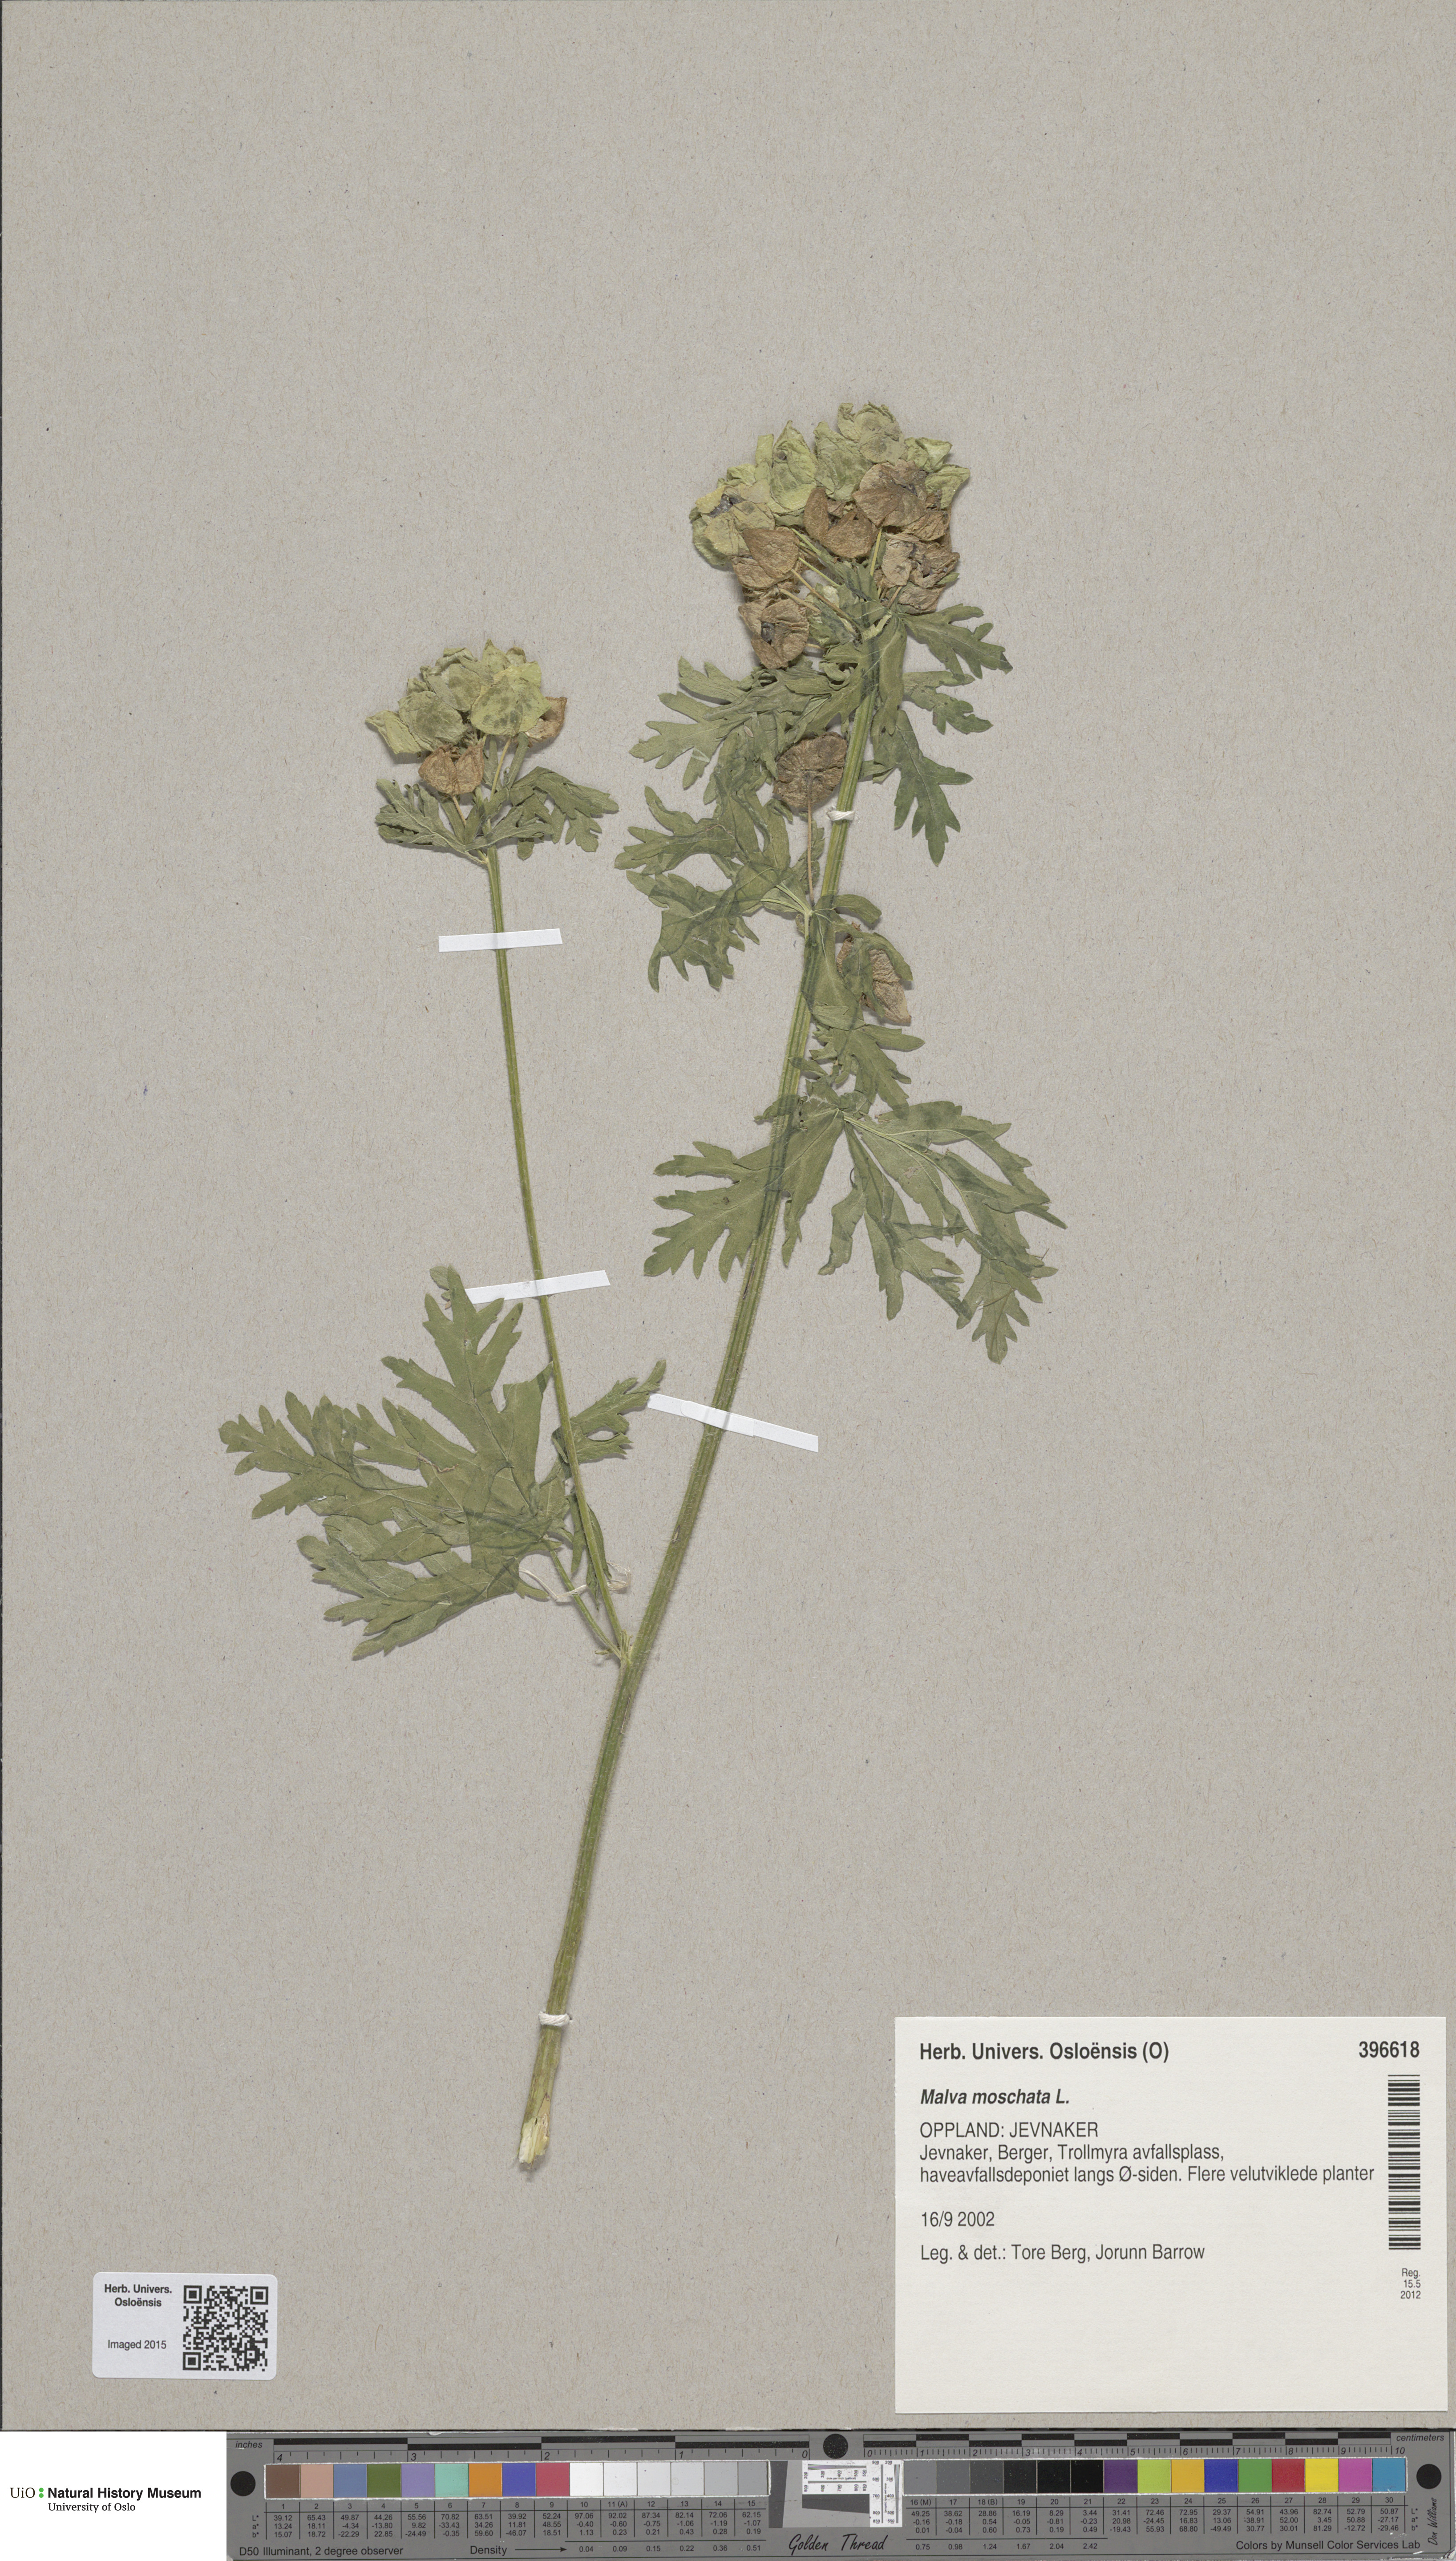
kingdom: Plantae
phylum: Tracheophyta
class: Magnoliopsida
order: Malvales
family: Malvaceae
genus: Malva
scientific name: Malva moschata
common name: Musk mallow
